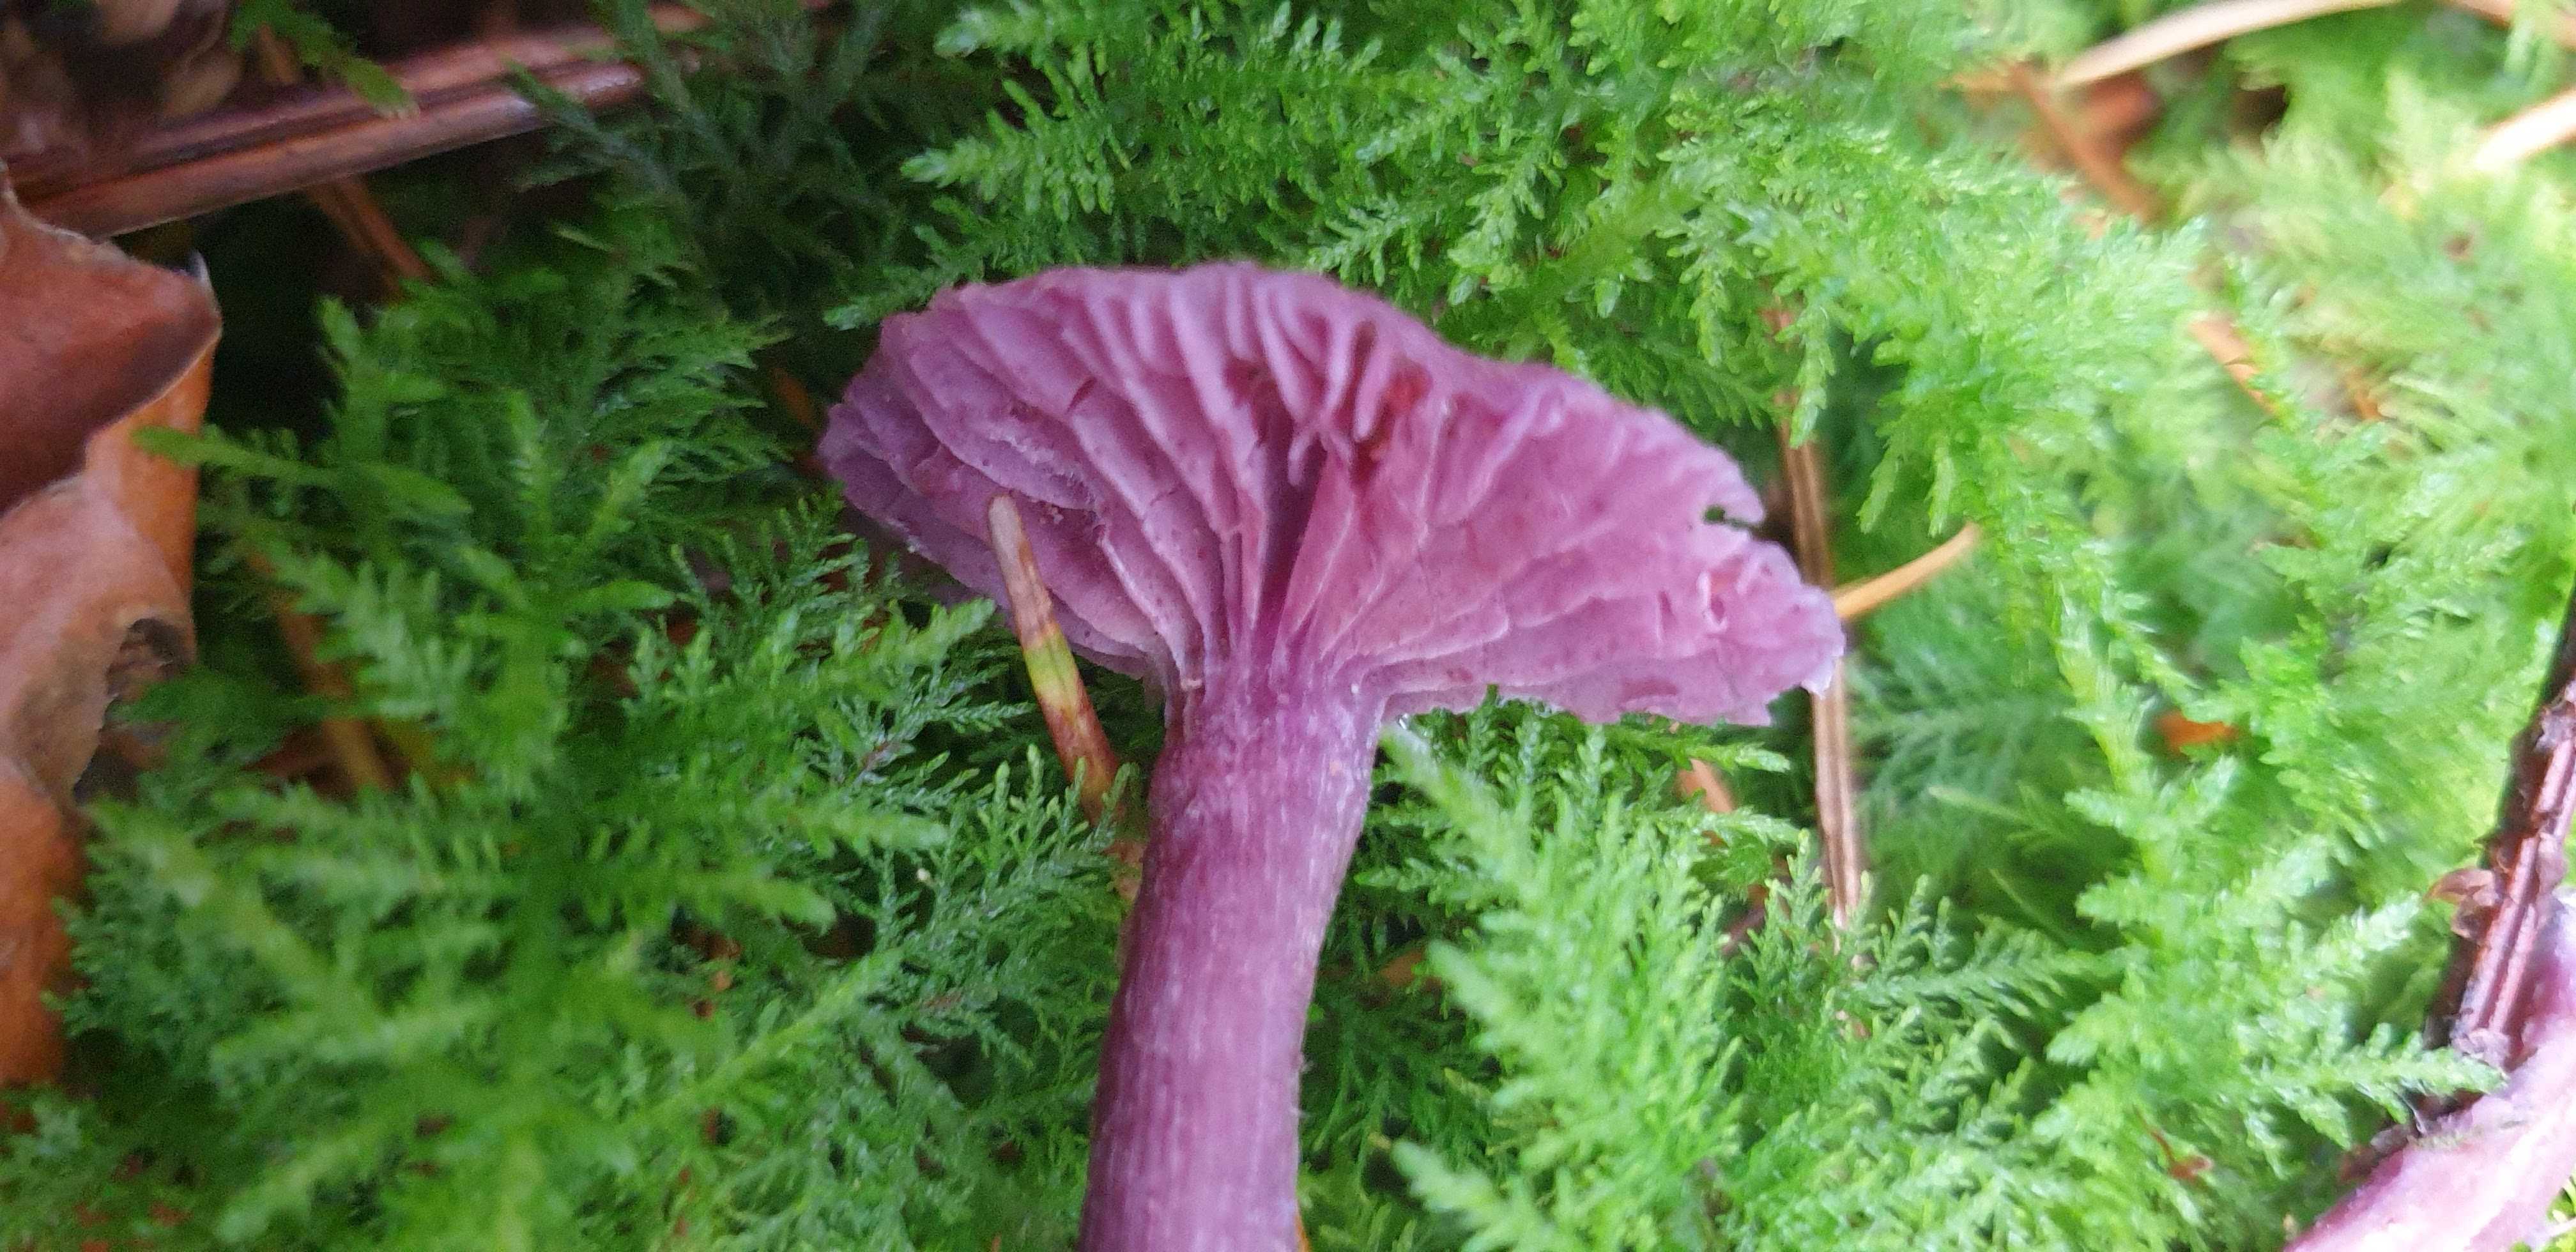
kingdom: Fungi
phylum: Basidiomycota
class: Agaricomycetes
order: Agaricales
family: Hydnangiaceae
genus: Laccaria
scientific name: Laccaria amethystina
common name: violet ametysthat
